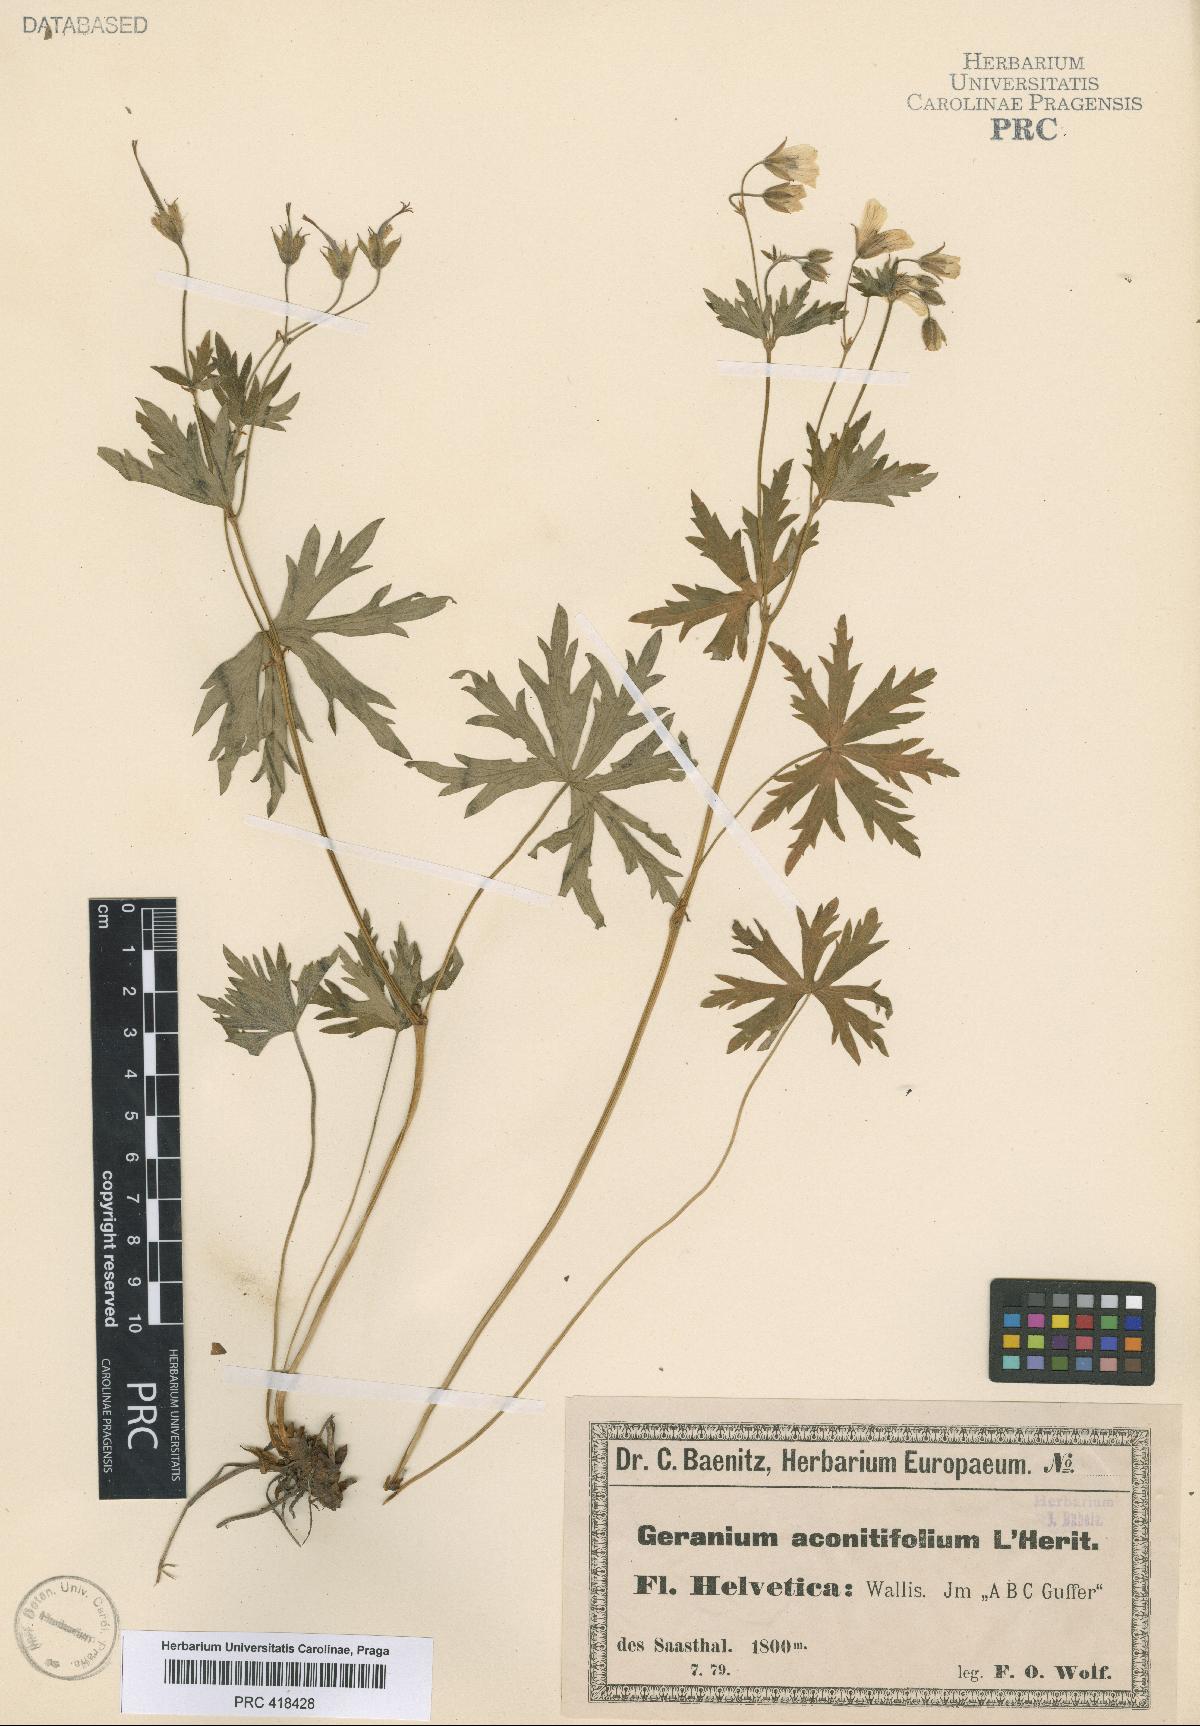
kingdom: Plantae
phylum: Tracheophyta
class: Magnoliopsida
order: Geraniales
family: Geraniaceae
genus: Geranium
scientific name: Geranium rivulare
